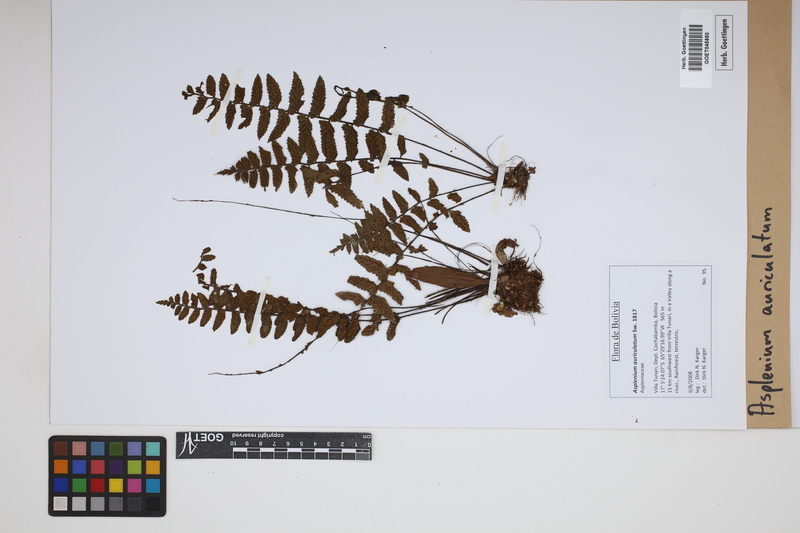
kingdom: Plantae
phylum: Tracheophyta
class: Polypodiopsida
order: Polypodiales
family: Aspleniaceae
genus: Asplenium
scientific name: Asplenium auriculatum
